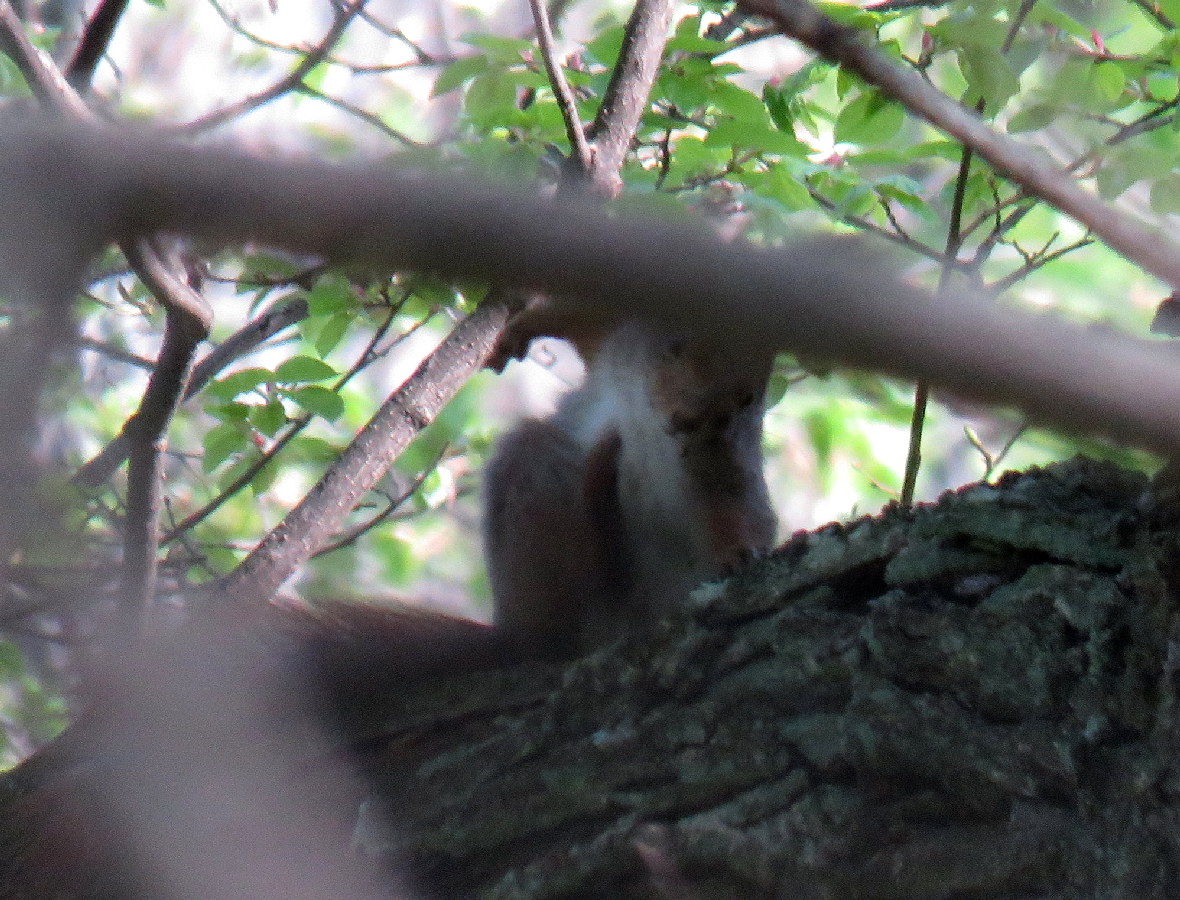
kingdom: Animalia
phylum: Chordata
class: Mammalia
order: Rodentia
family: Sciuridae
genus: Sciurus
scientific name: Sciurus vulgaris
